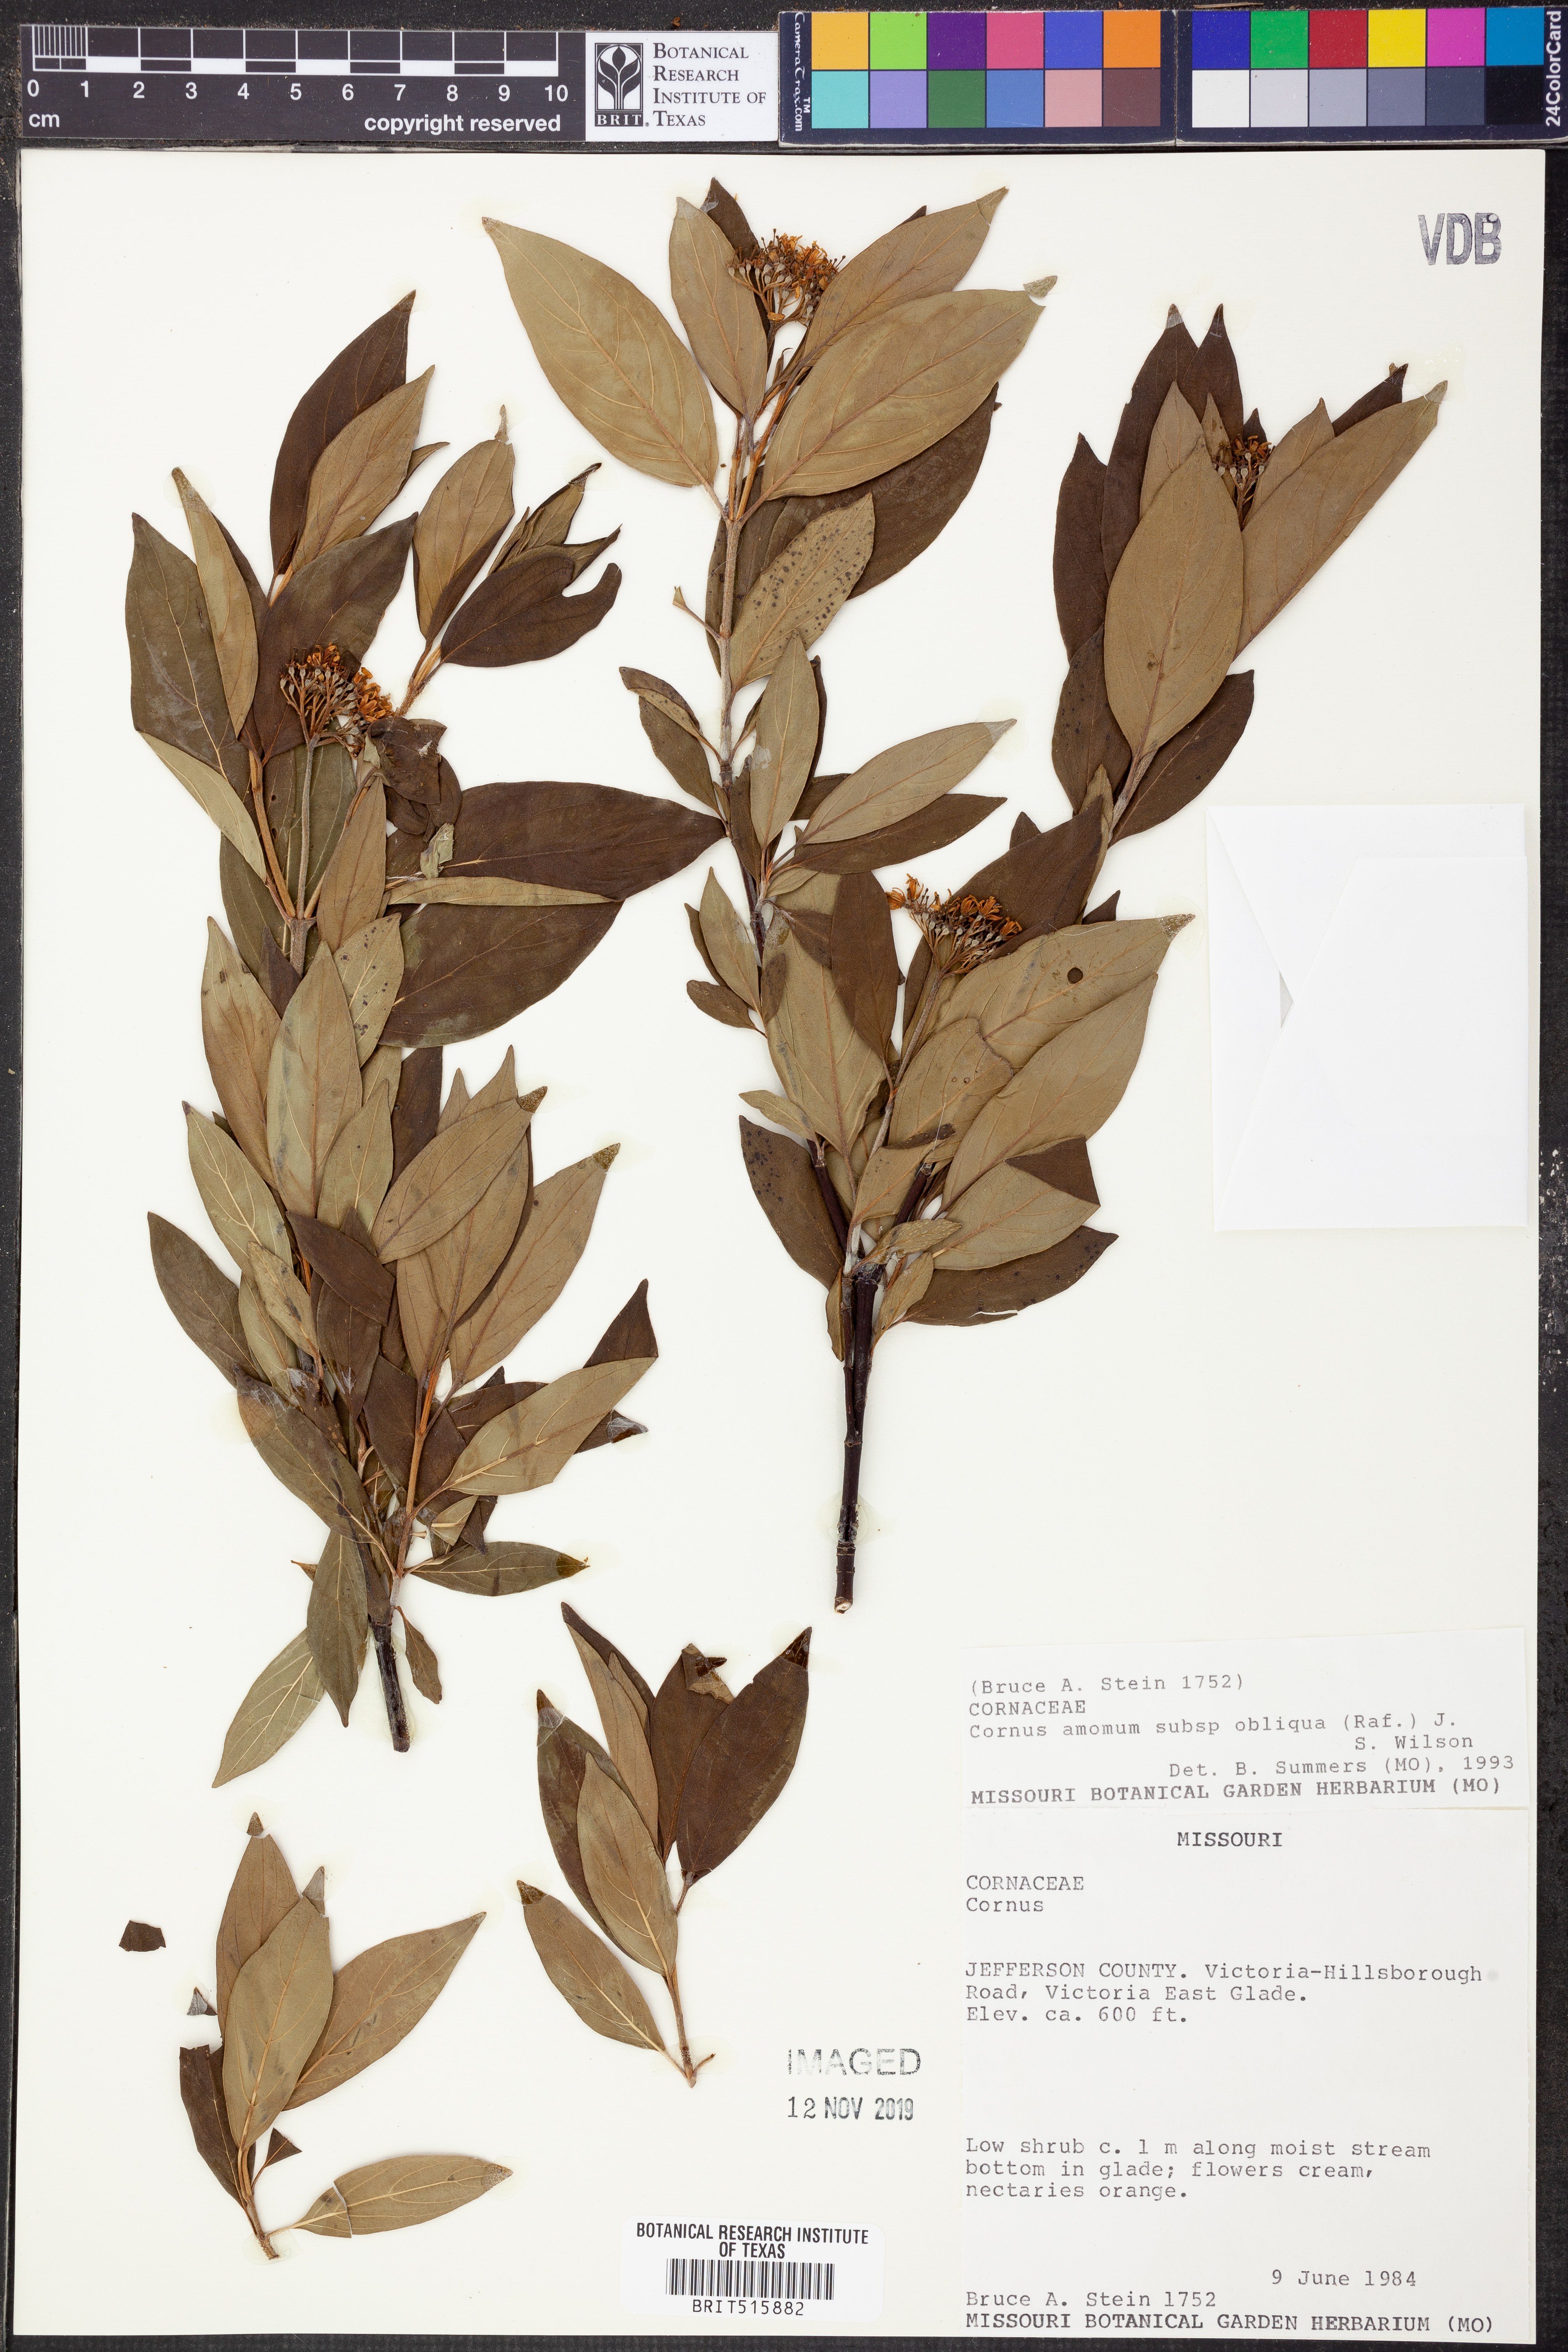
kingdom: Plantae
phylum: Tracheophyta
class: Magnoliopsida
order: Cornales
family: Cornaceae
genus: Cornus
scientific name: Cornus obliqua
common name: Pale dogwood
